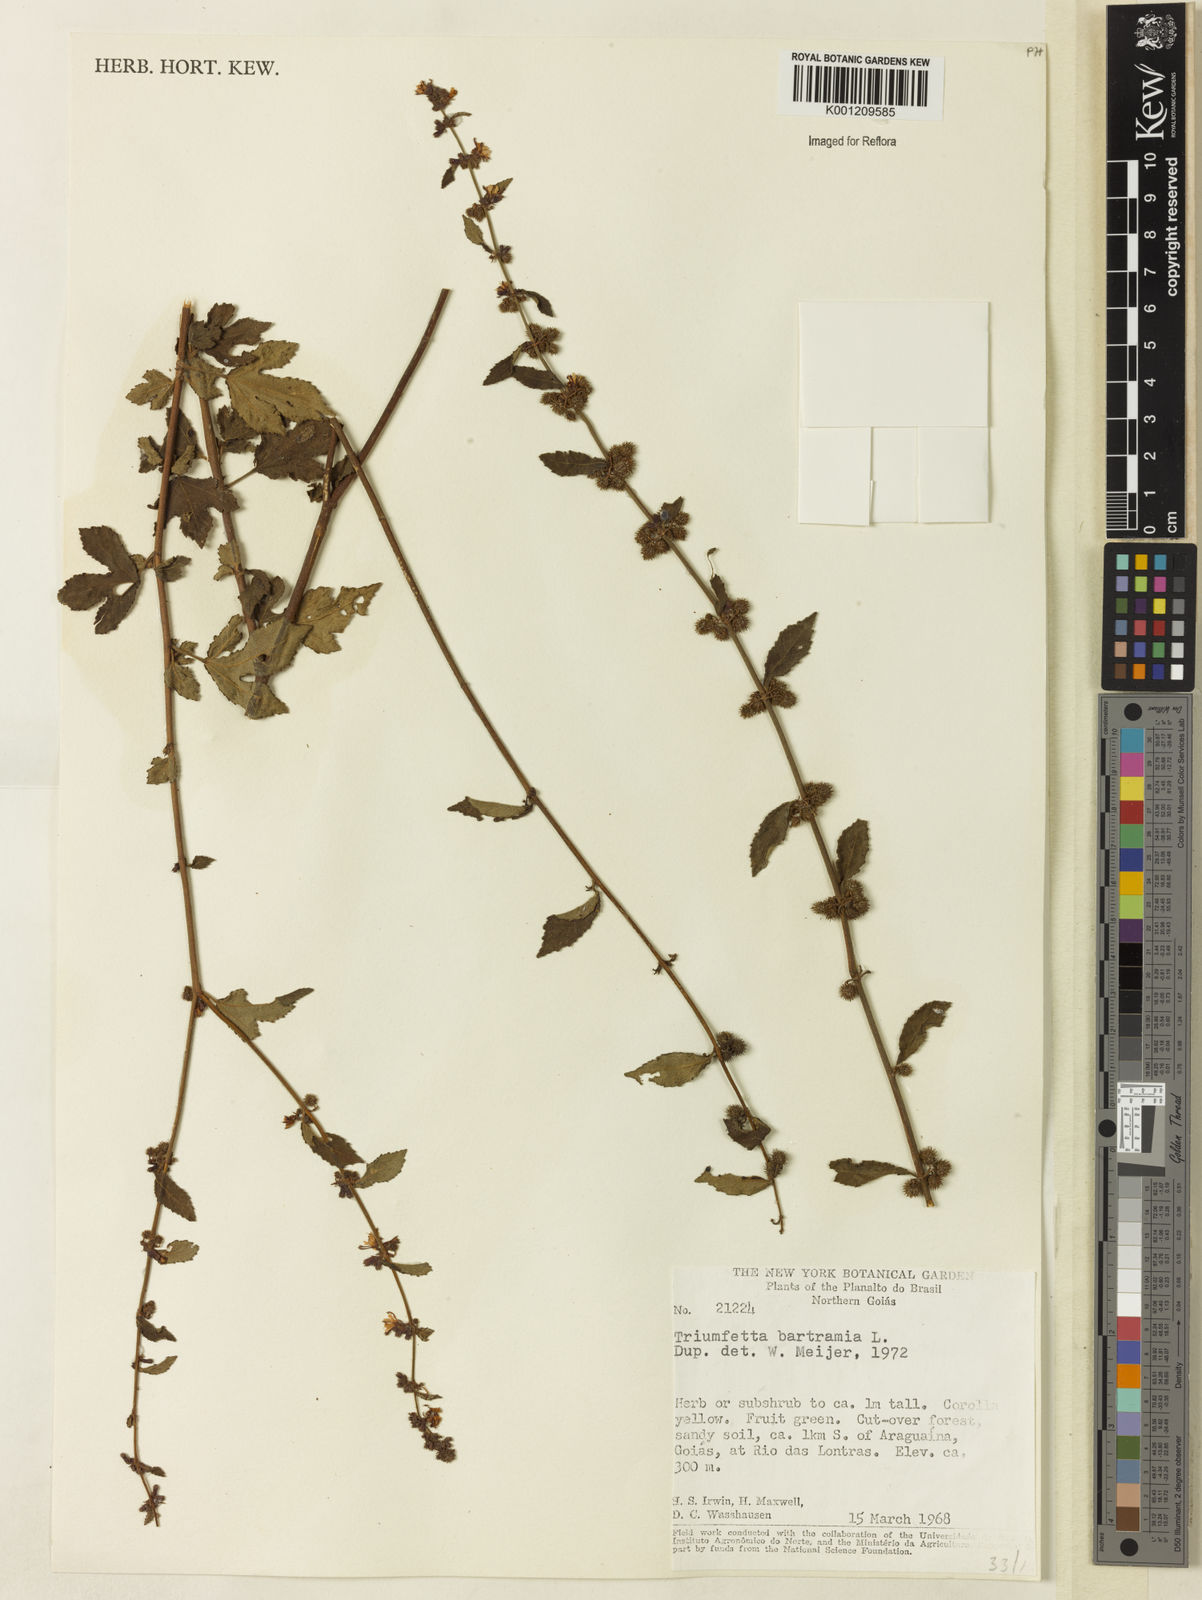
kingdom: Plantae
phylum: Tracheophyta
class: Magnoliopsida
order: Malvales
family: Malvaceae
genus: Triumfetta
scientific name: Triumfetta rhomboidea
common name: Diamond burbark
